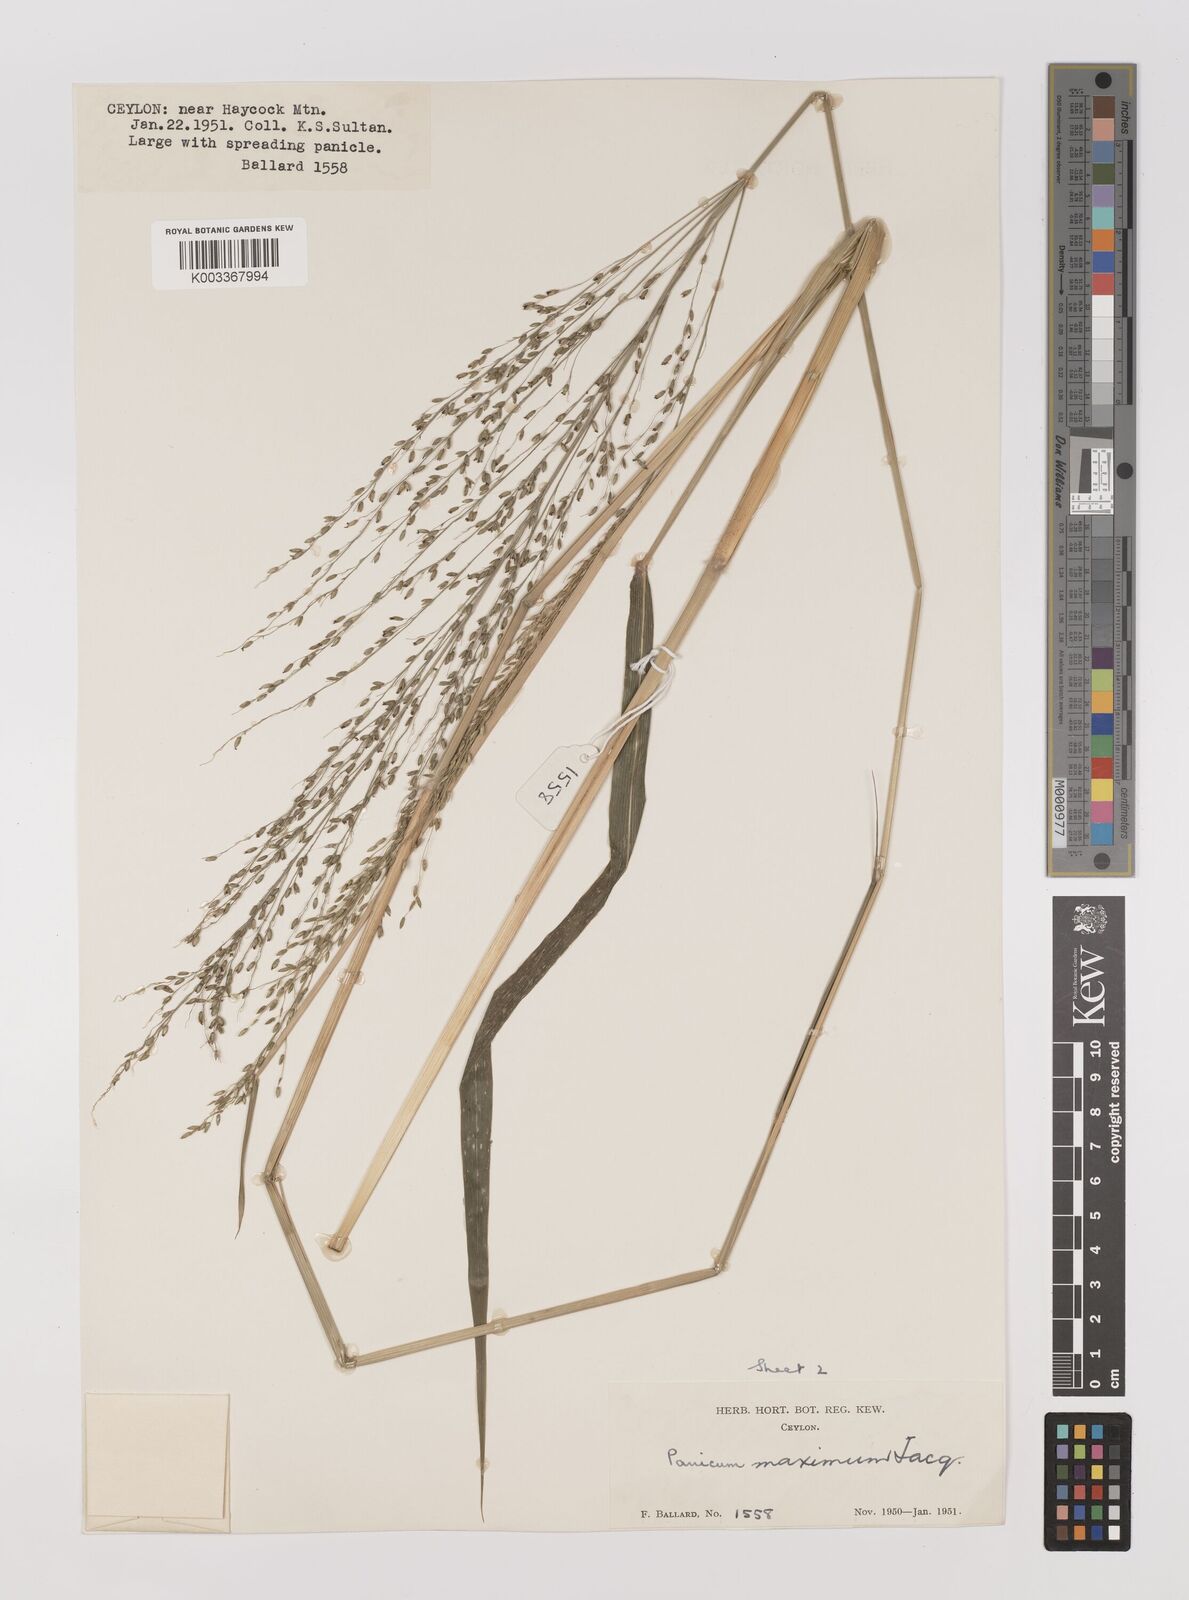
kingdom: Plantae
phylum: Tracheophyta
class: Liliopsida
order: Poales
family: Poaceae
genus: Megathyrsus
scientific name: Megathyrsus maximus
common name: Guineagrass
